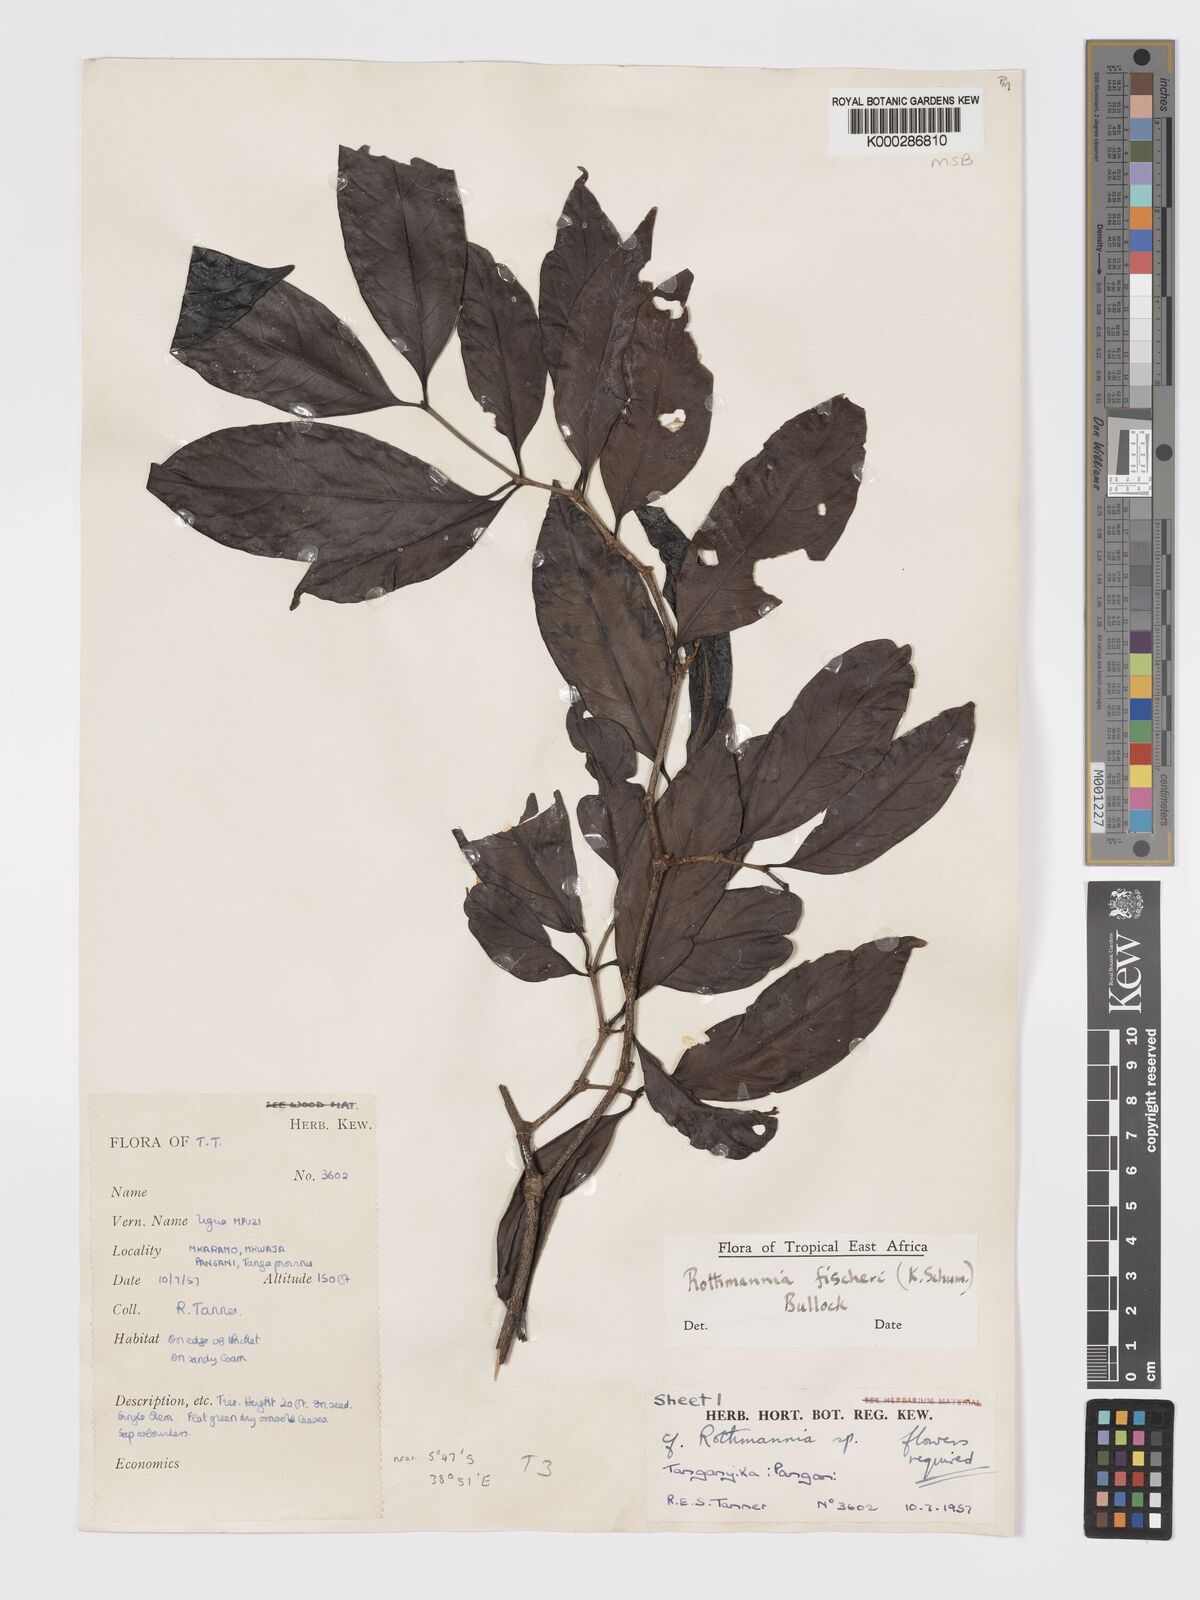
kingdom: Plantae
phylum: Tracheophyta
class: Magnoliopsida
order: Gentianales
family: Rubiaceae
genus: Rothmannia
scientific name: Rothmannia ravae
